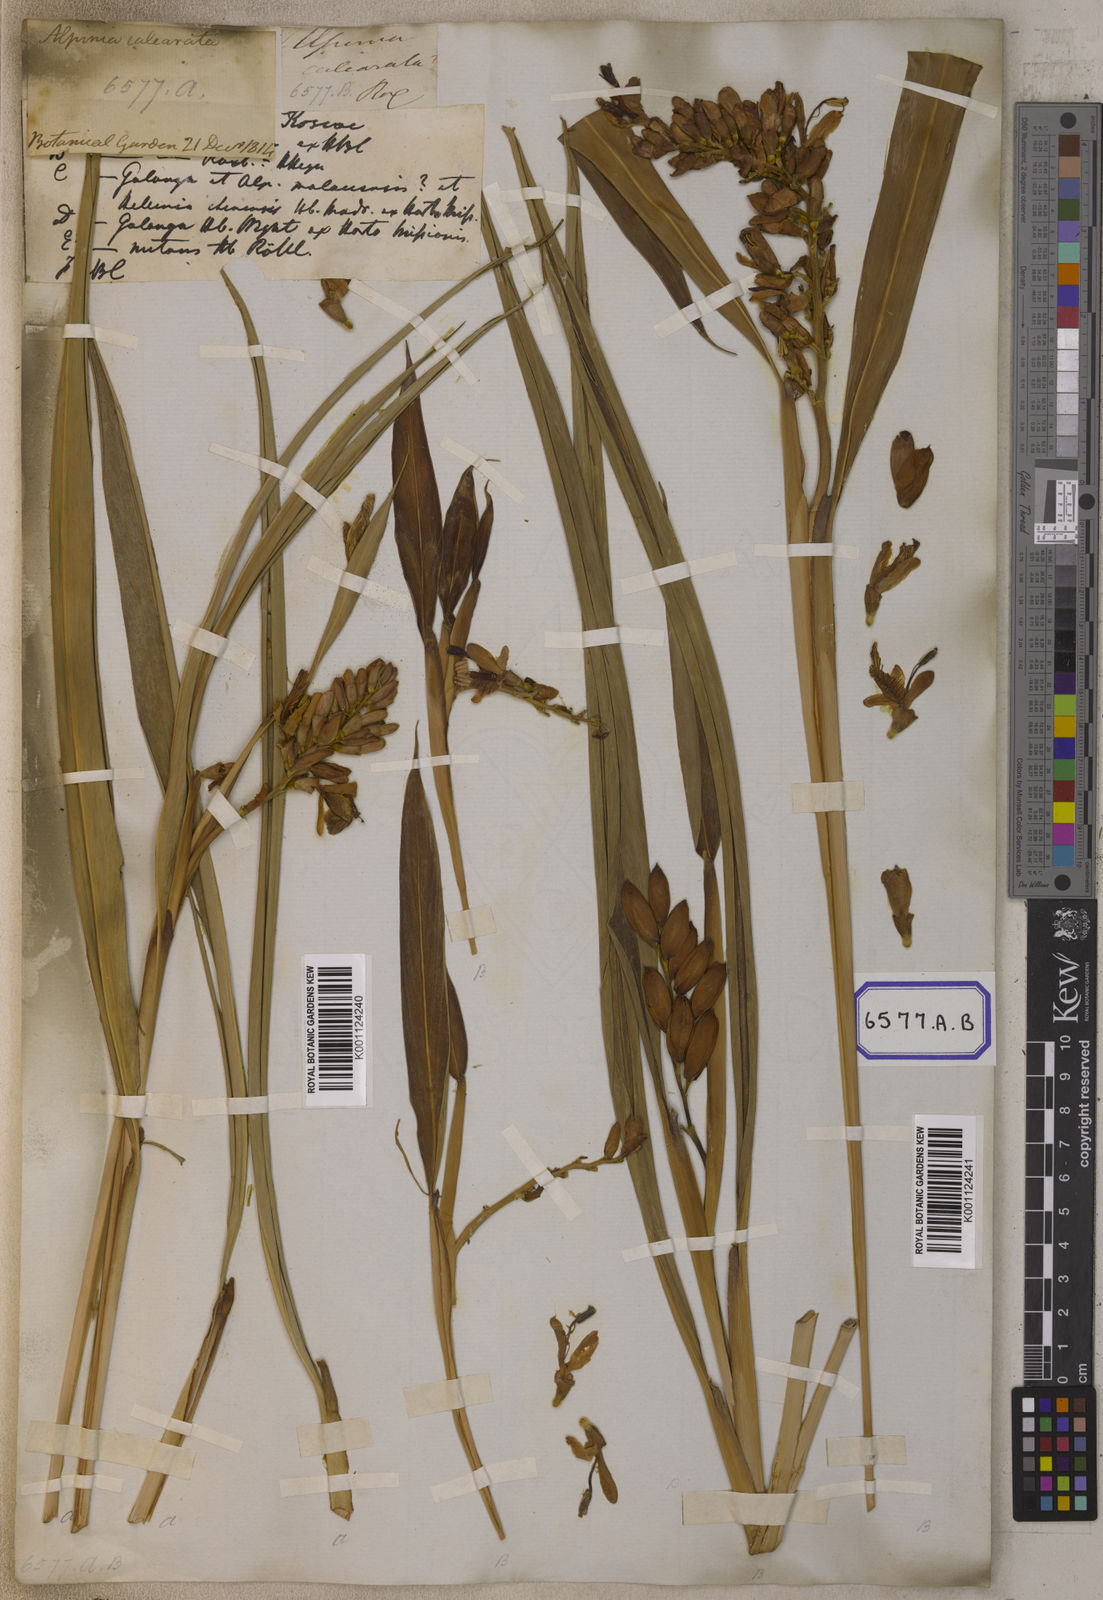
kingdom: Plantae
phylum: Tracheophyta
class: Liliopsida
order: Zingiberales
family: Zingiberaceae
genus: Alpinia
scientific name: Alpinia calcarata
